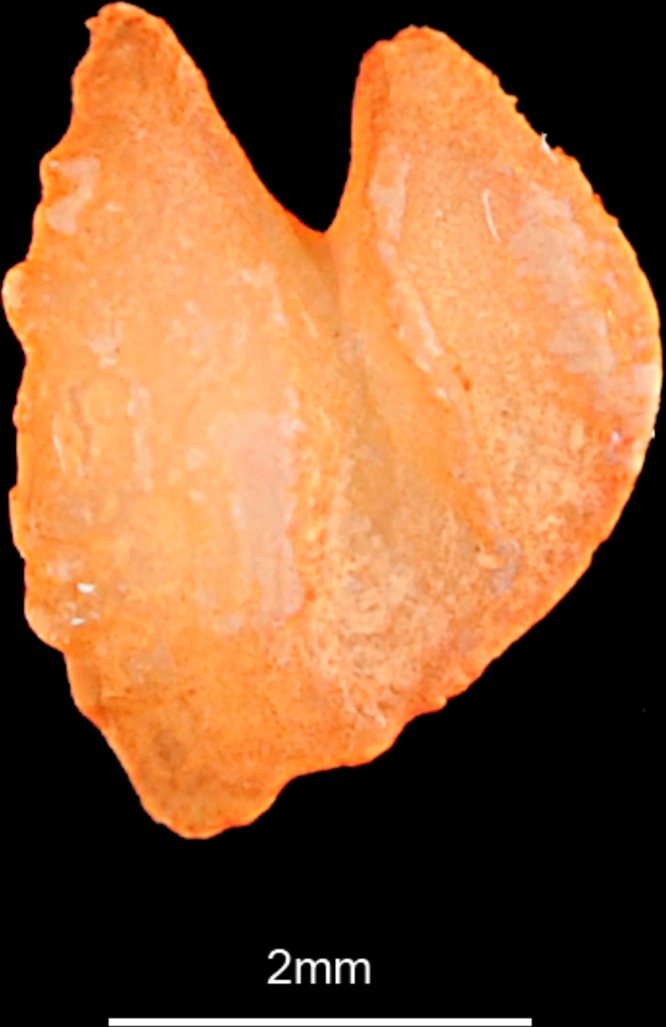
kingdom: Animalia
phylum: Chordata
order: Pleuronectiformes
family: Pleuronectidae
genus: Hippoglossus
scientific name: Hippoglossus hippoglossus
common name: Atlantic halibut
